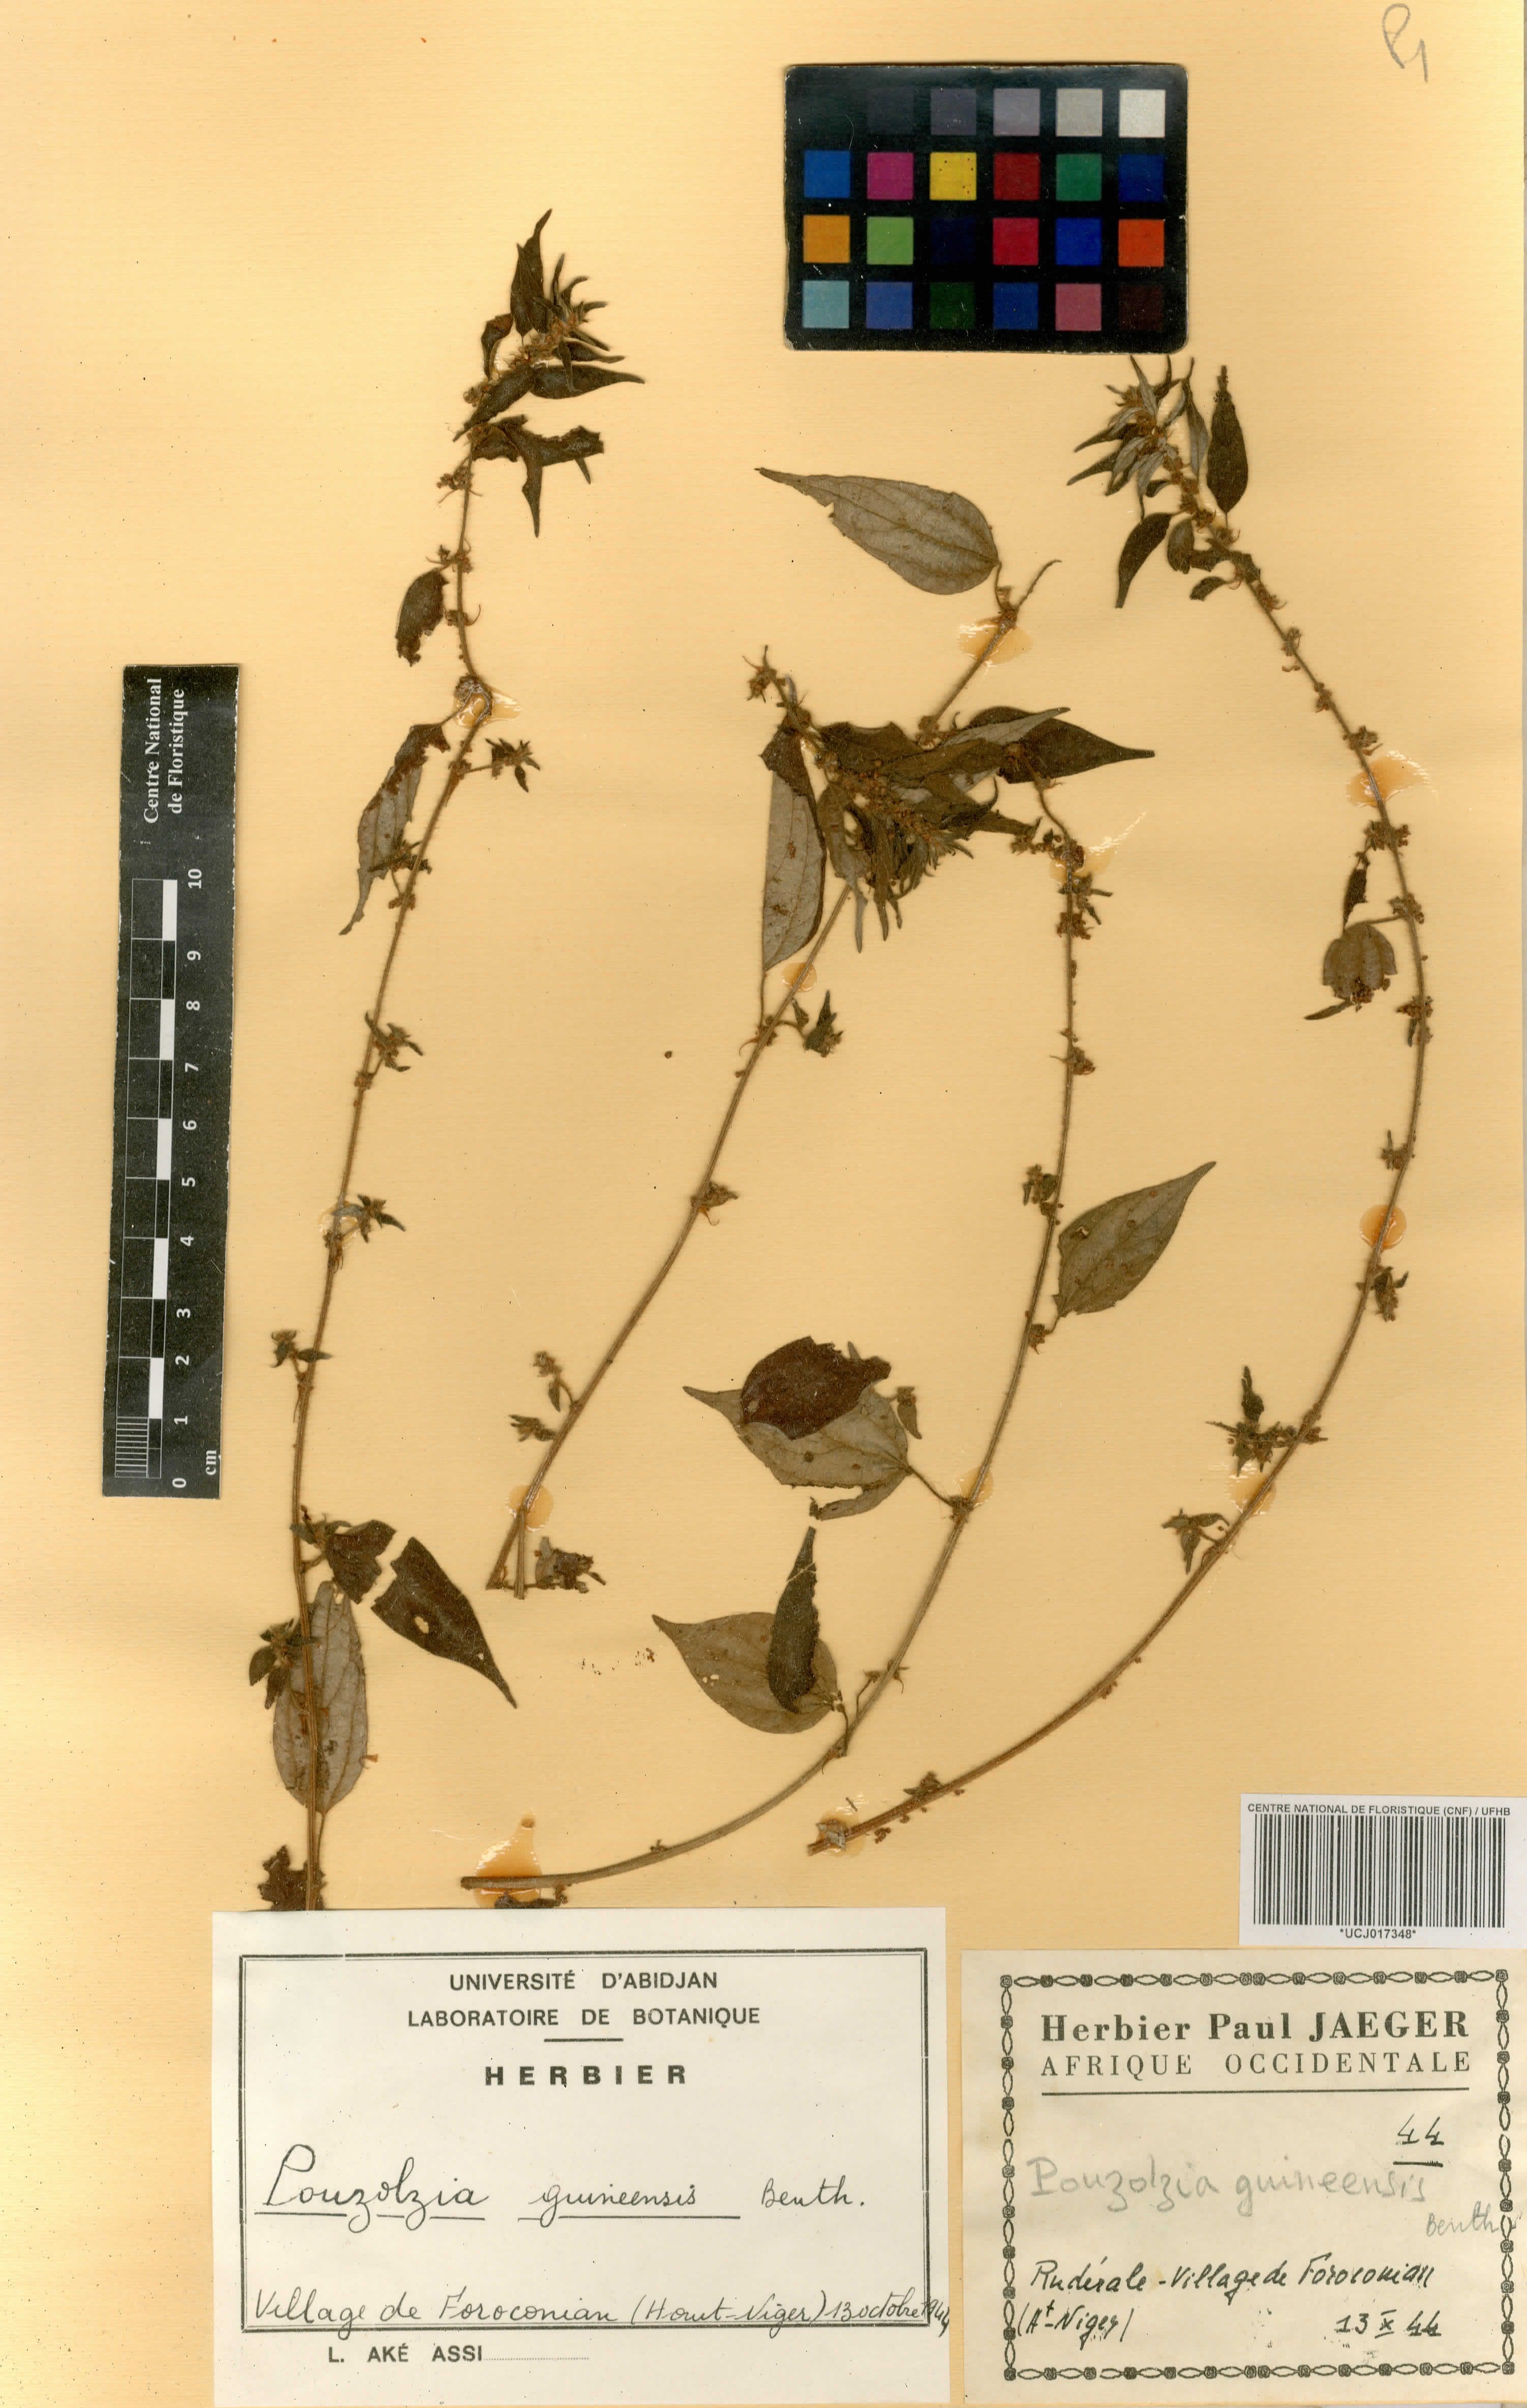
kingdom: Plantae
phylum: Tracheophyta
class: Magnoliopsida
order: Rosales
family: Urticaceae
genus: Pouzolzia
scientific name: Pouzolzia guineensis
